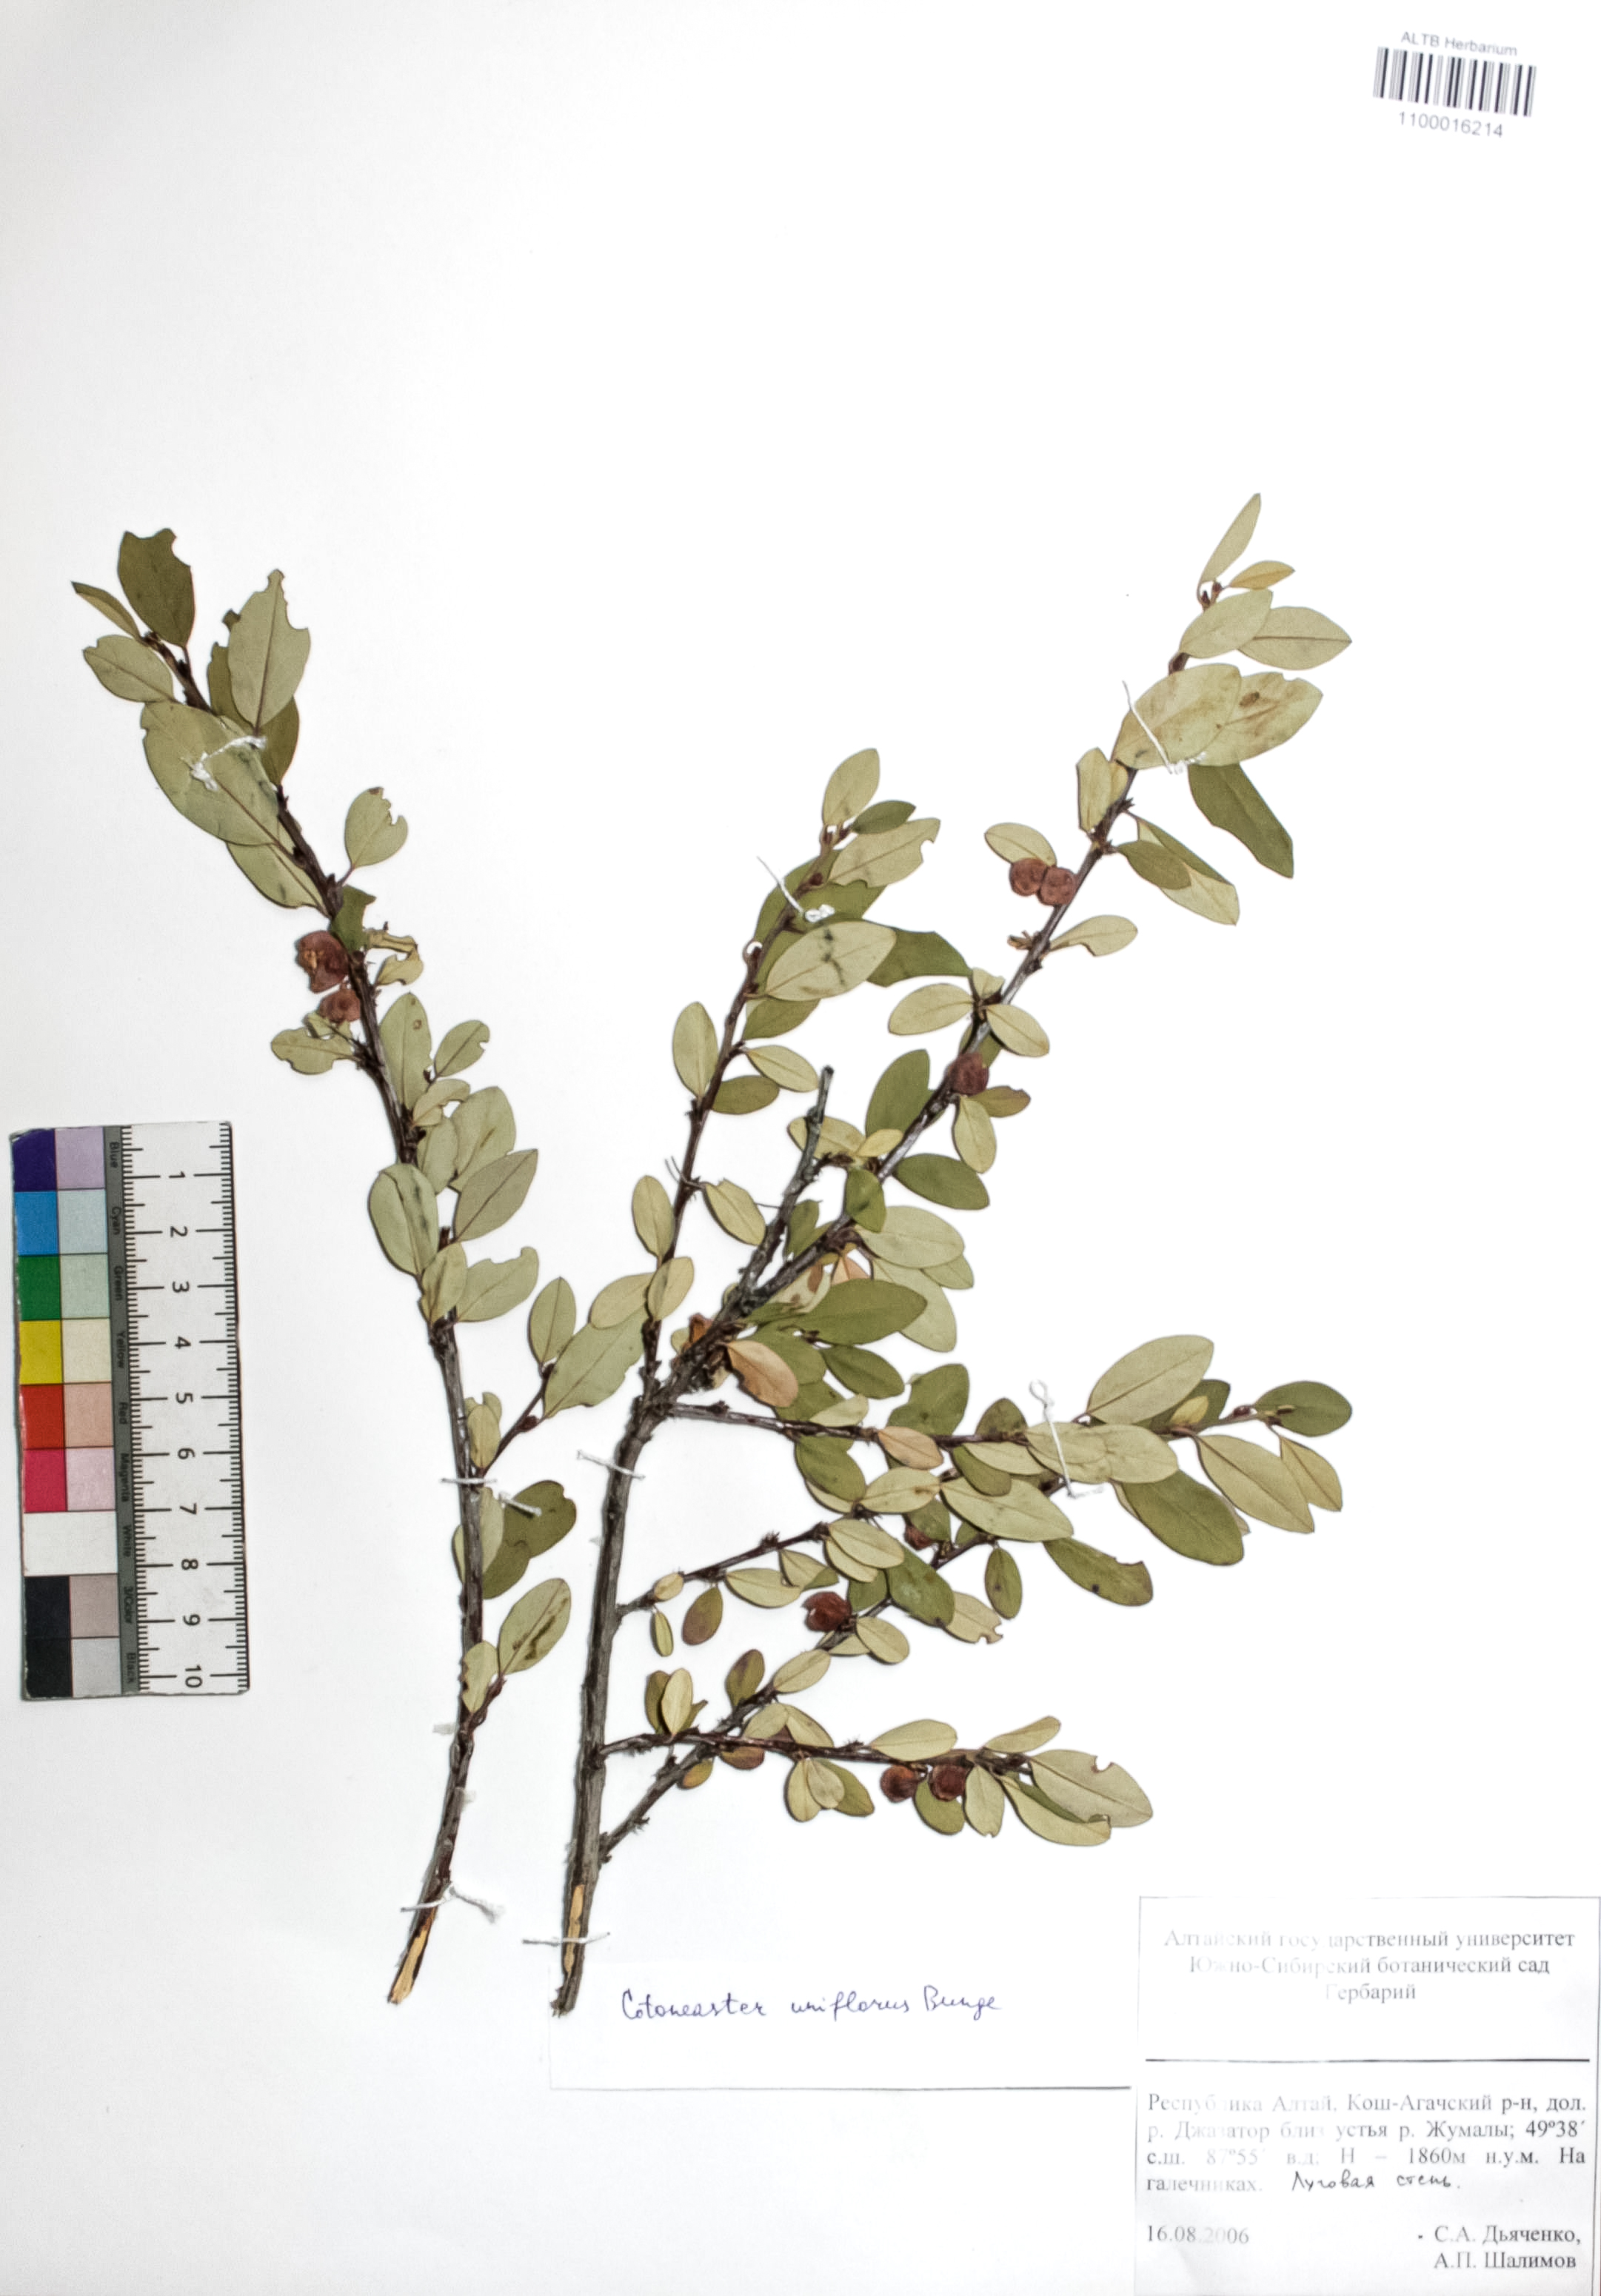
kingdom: Plantae
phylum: Tracheophyta
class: Magnoliopsida
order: Rosales
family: Rosaceae
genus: Cotoneaster
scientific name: Cotoneaster uniflorus
